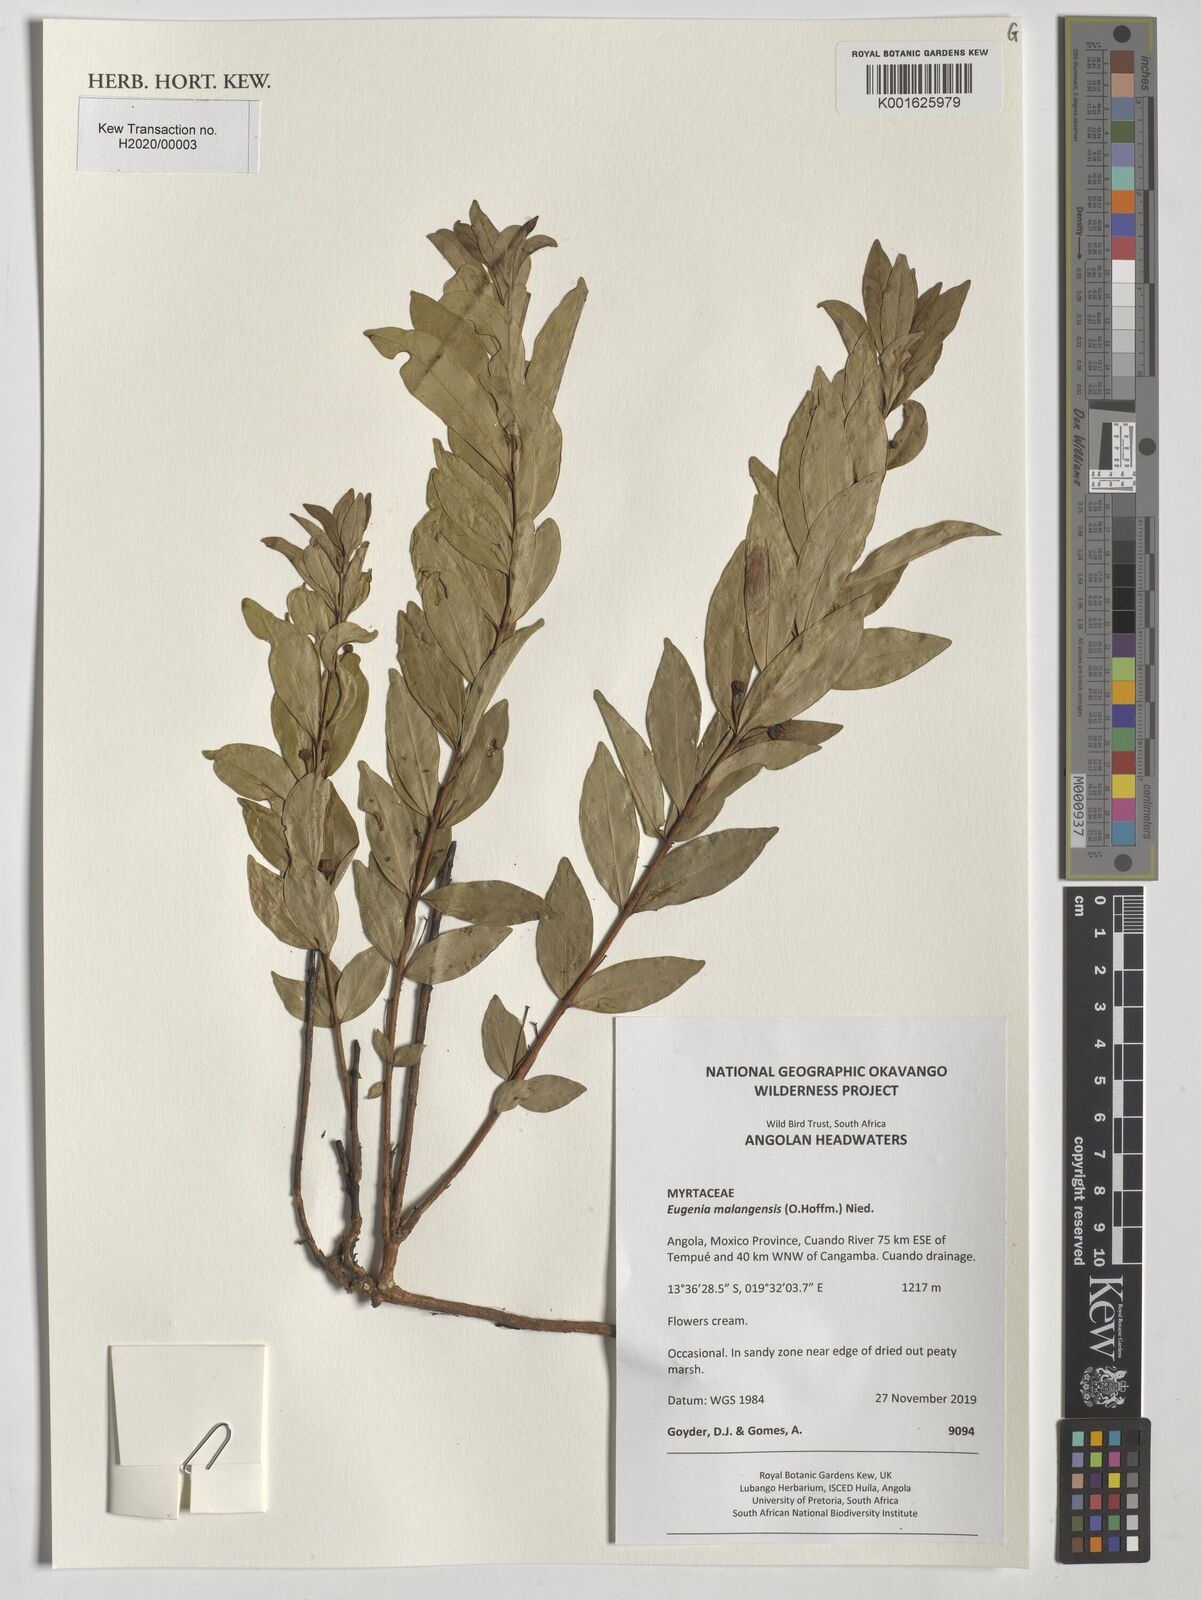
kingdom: Plantae
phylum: Tracheophyta
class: Magnoliopsida
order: Myrtales
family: Myrtaceae
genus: Eugenia
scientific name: Eugenia malangensis
